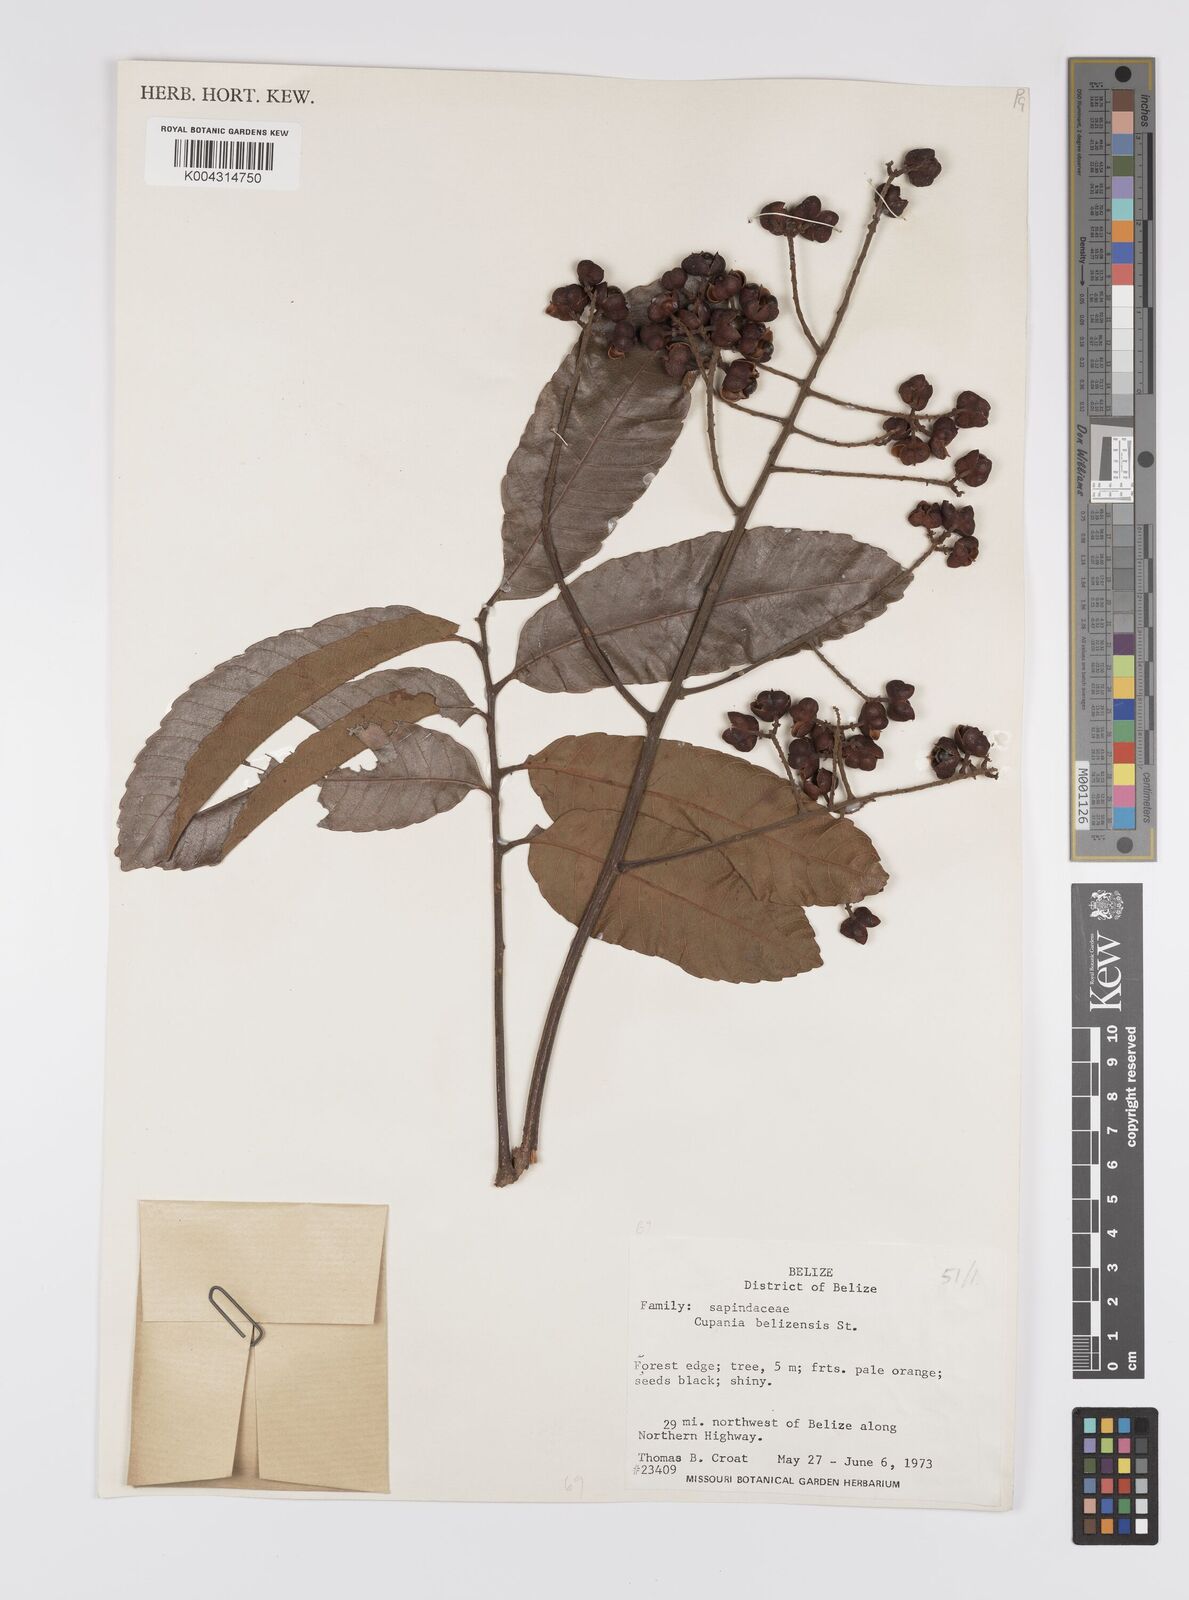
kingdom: Plantae
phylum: Tracheophyta
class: Magnoliopsida
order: Sapindales
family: Sapindaceae
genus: Cupania
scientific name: Cupania belizensis
